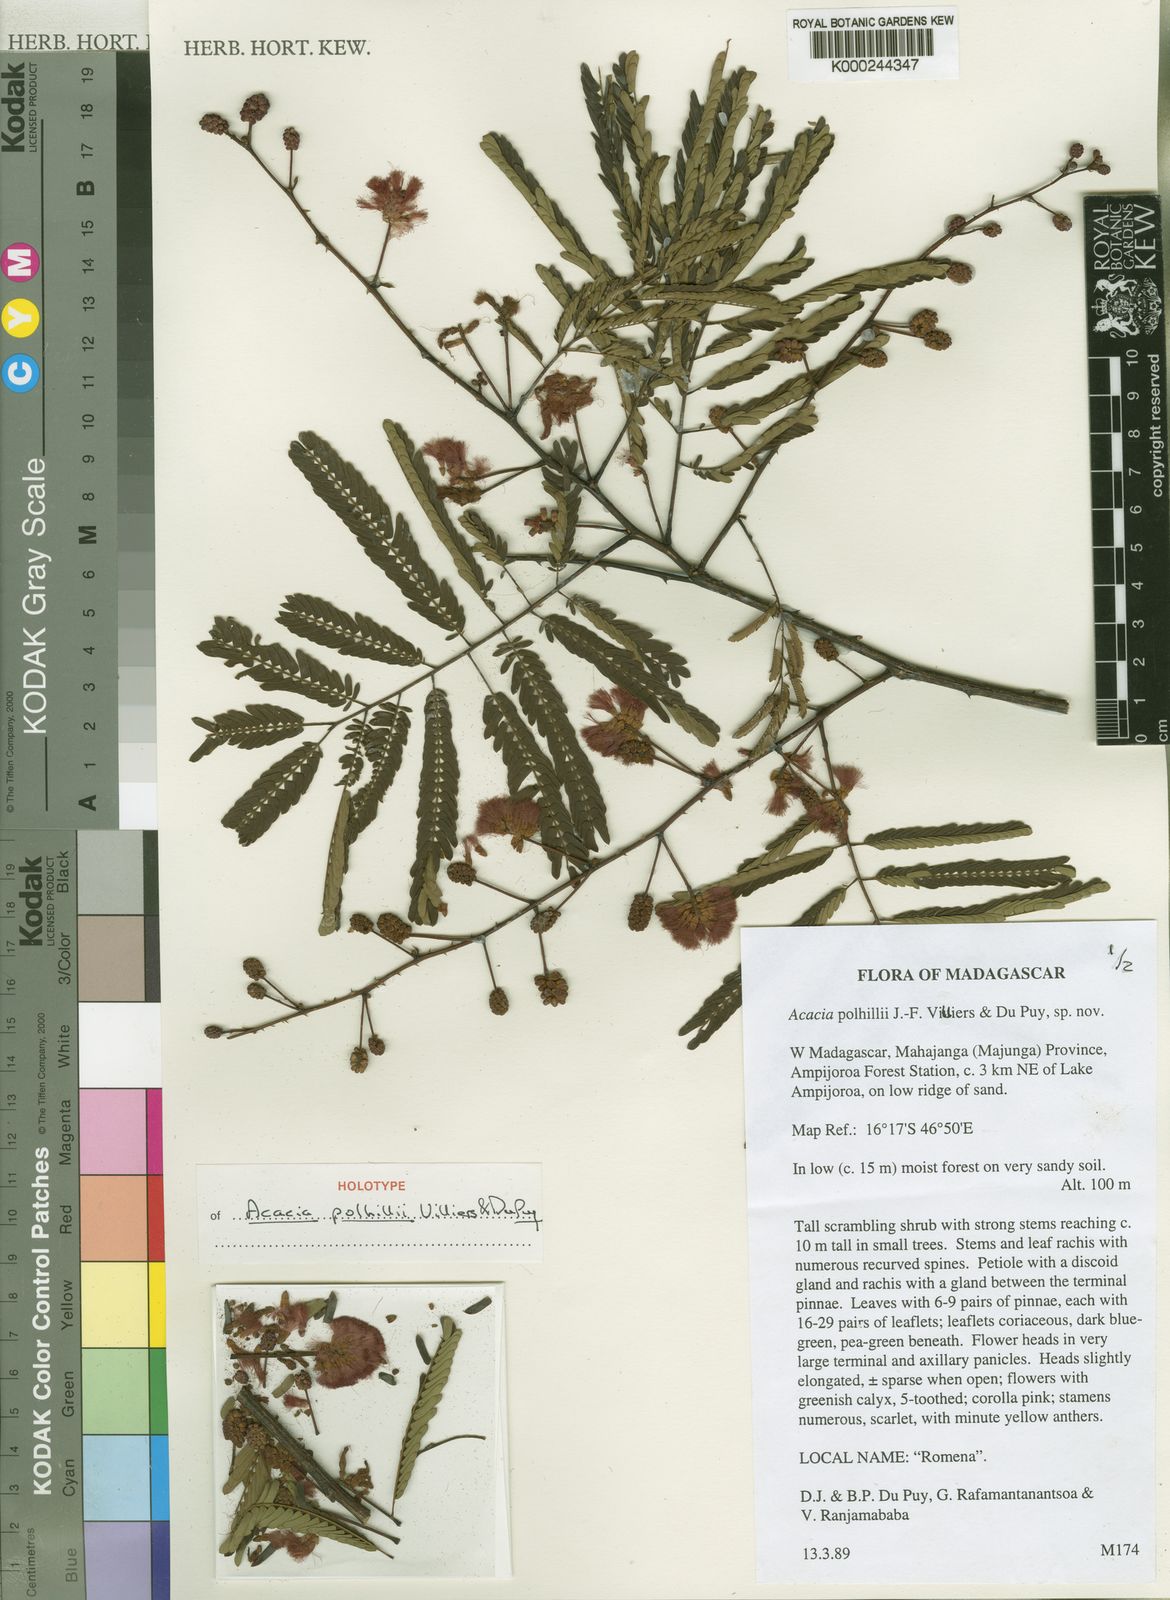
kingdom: Plantae
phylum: Tracheophyta
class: Magnoliopsida
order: Fabales
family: Fabaceae
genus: Senegalia
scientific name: Senegalia polhillii
